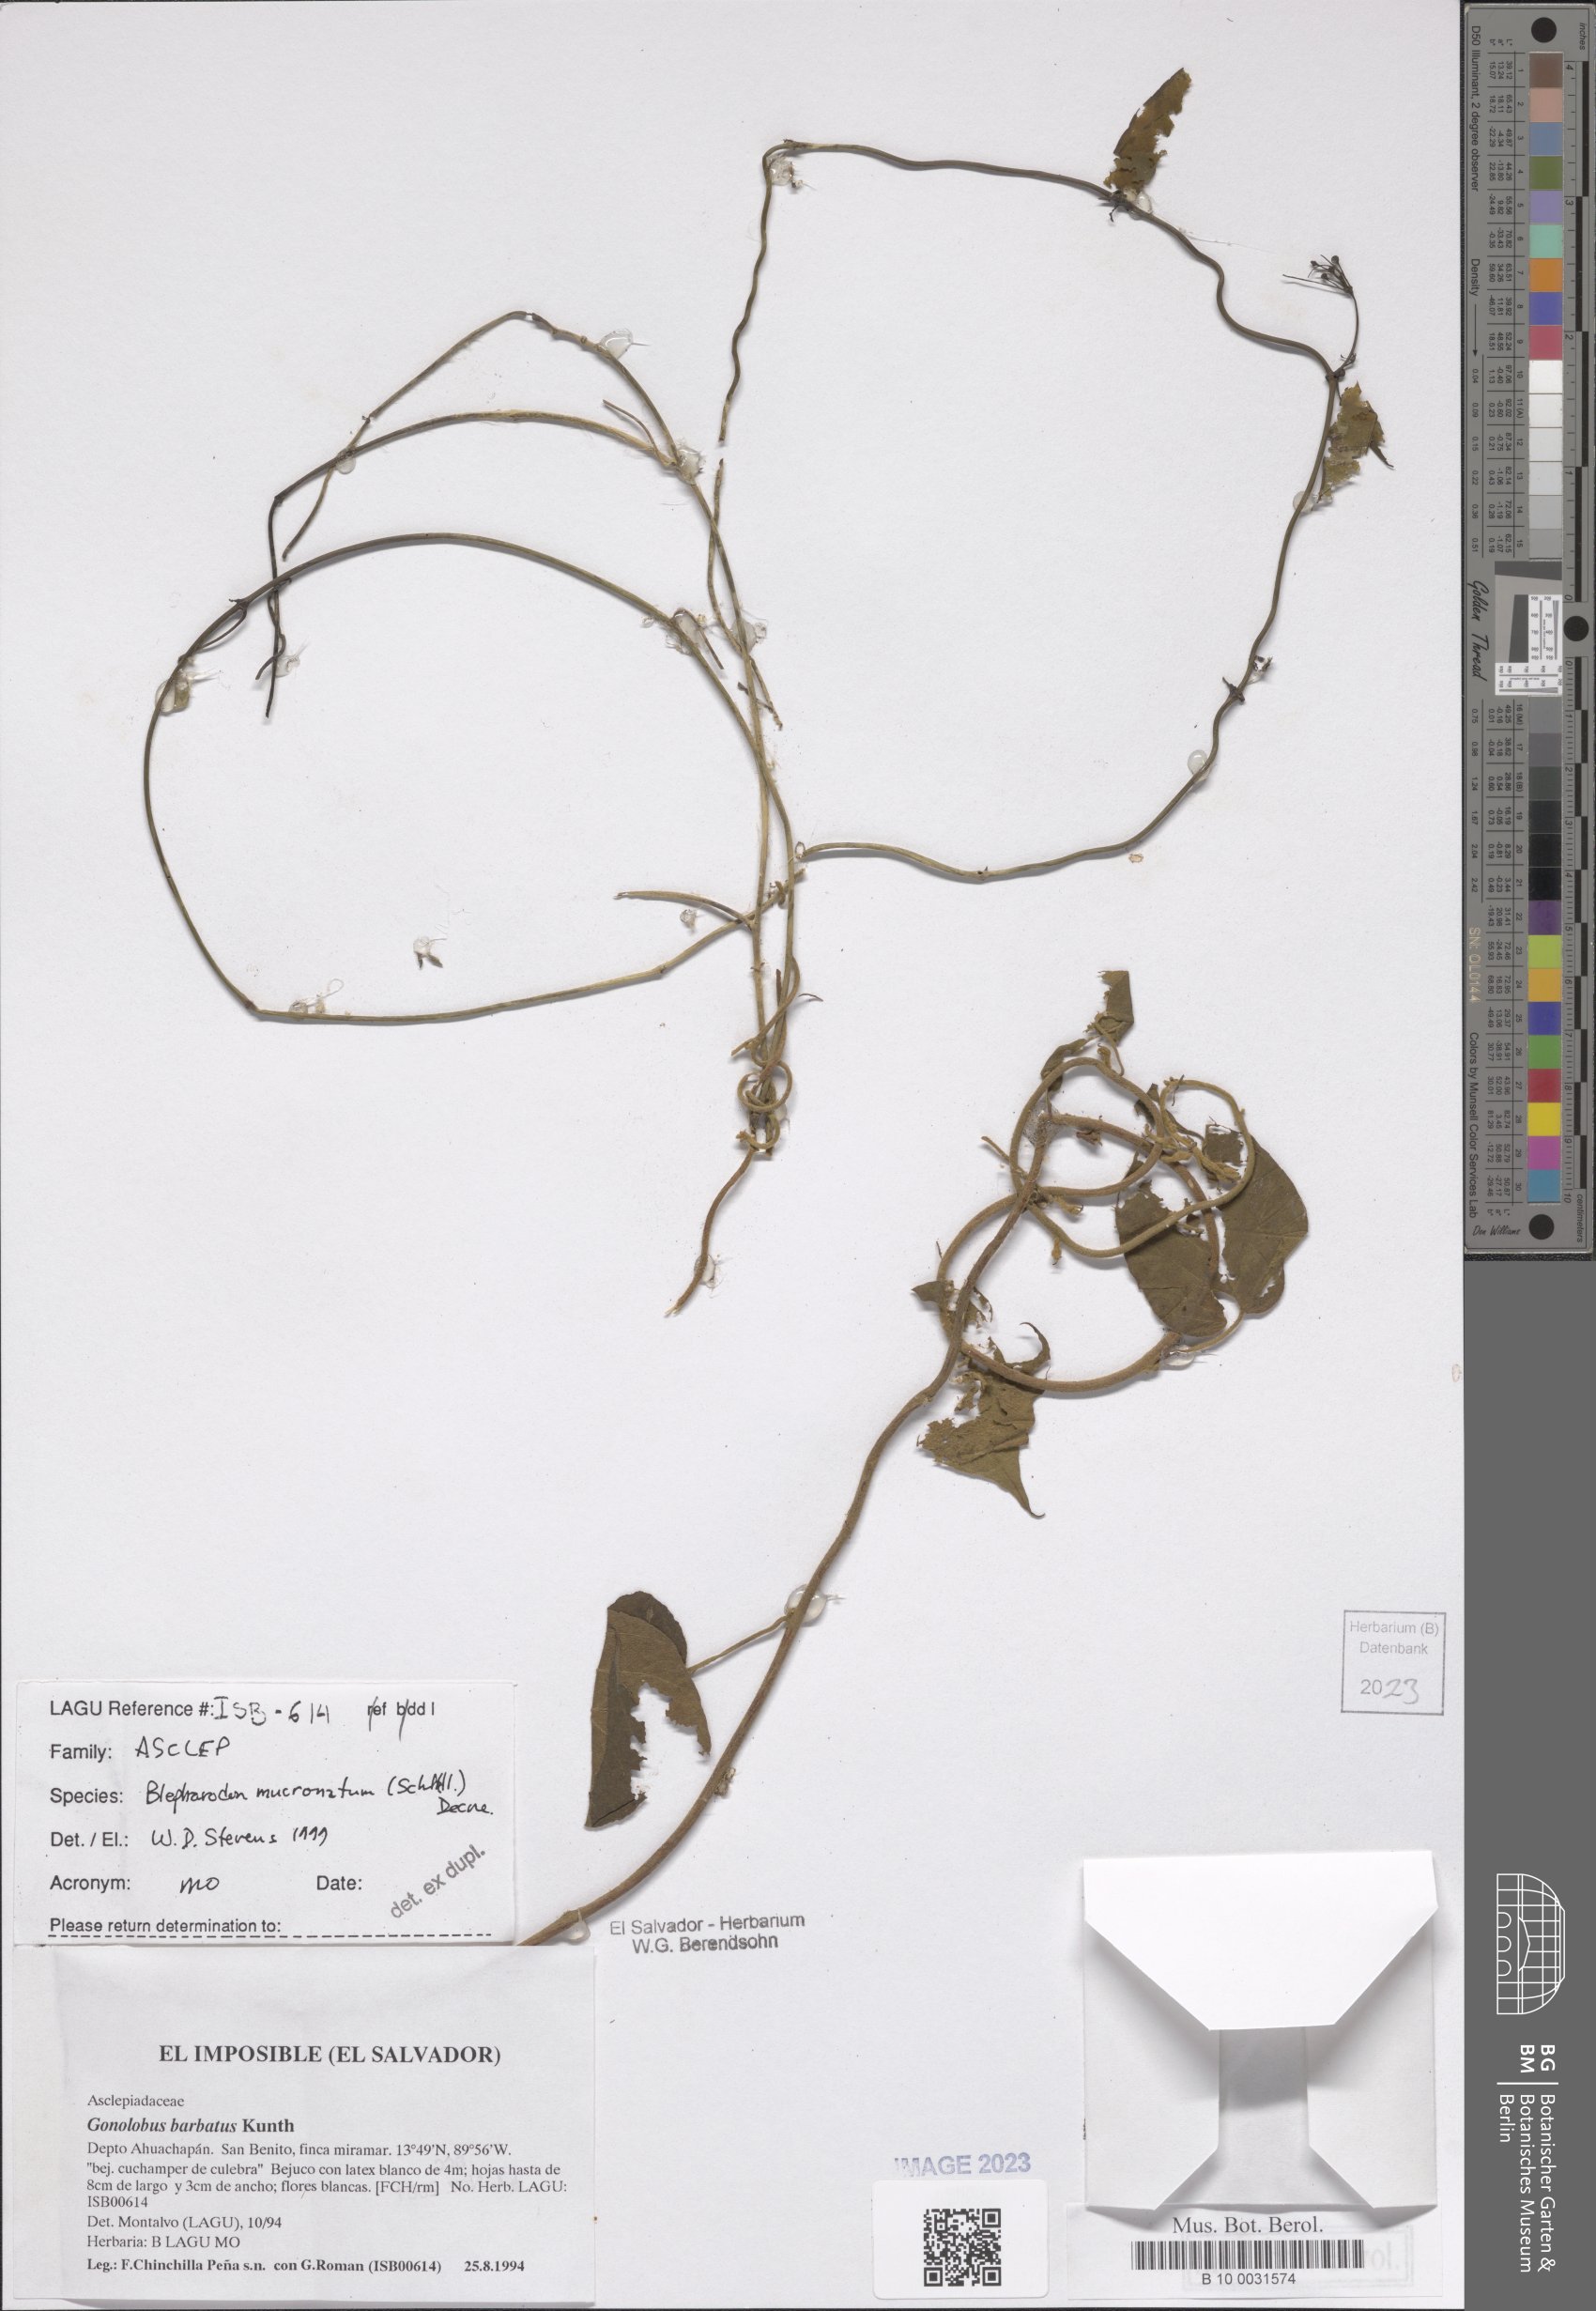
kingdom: Plantae
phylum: Tracheophyta
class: Magnoliopsida
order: Gentianales
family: Apocynaceae
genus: Vailia
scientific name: Vailia anomala
